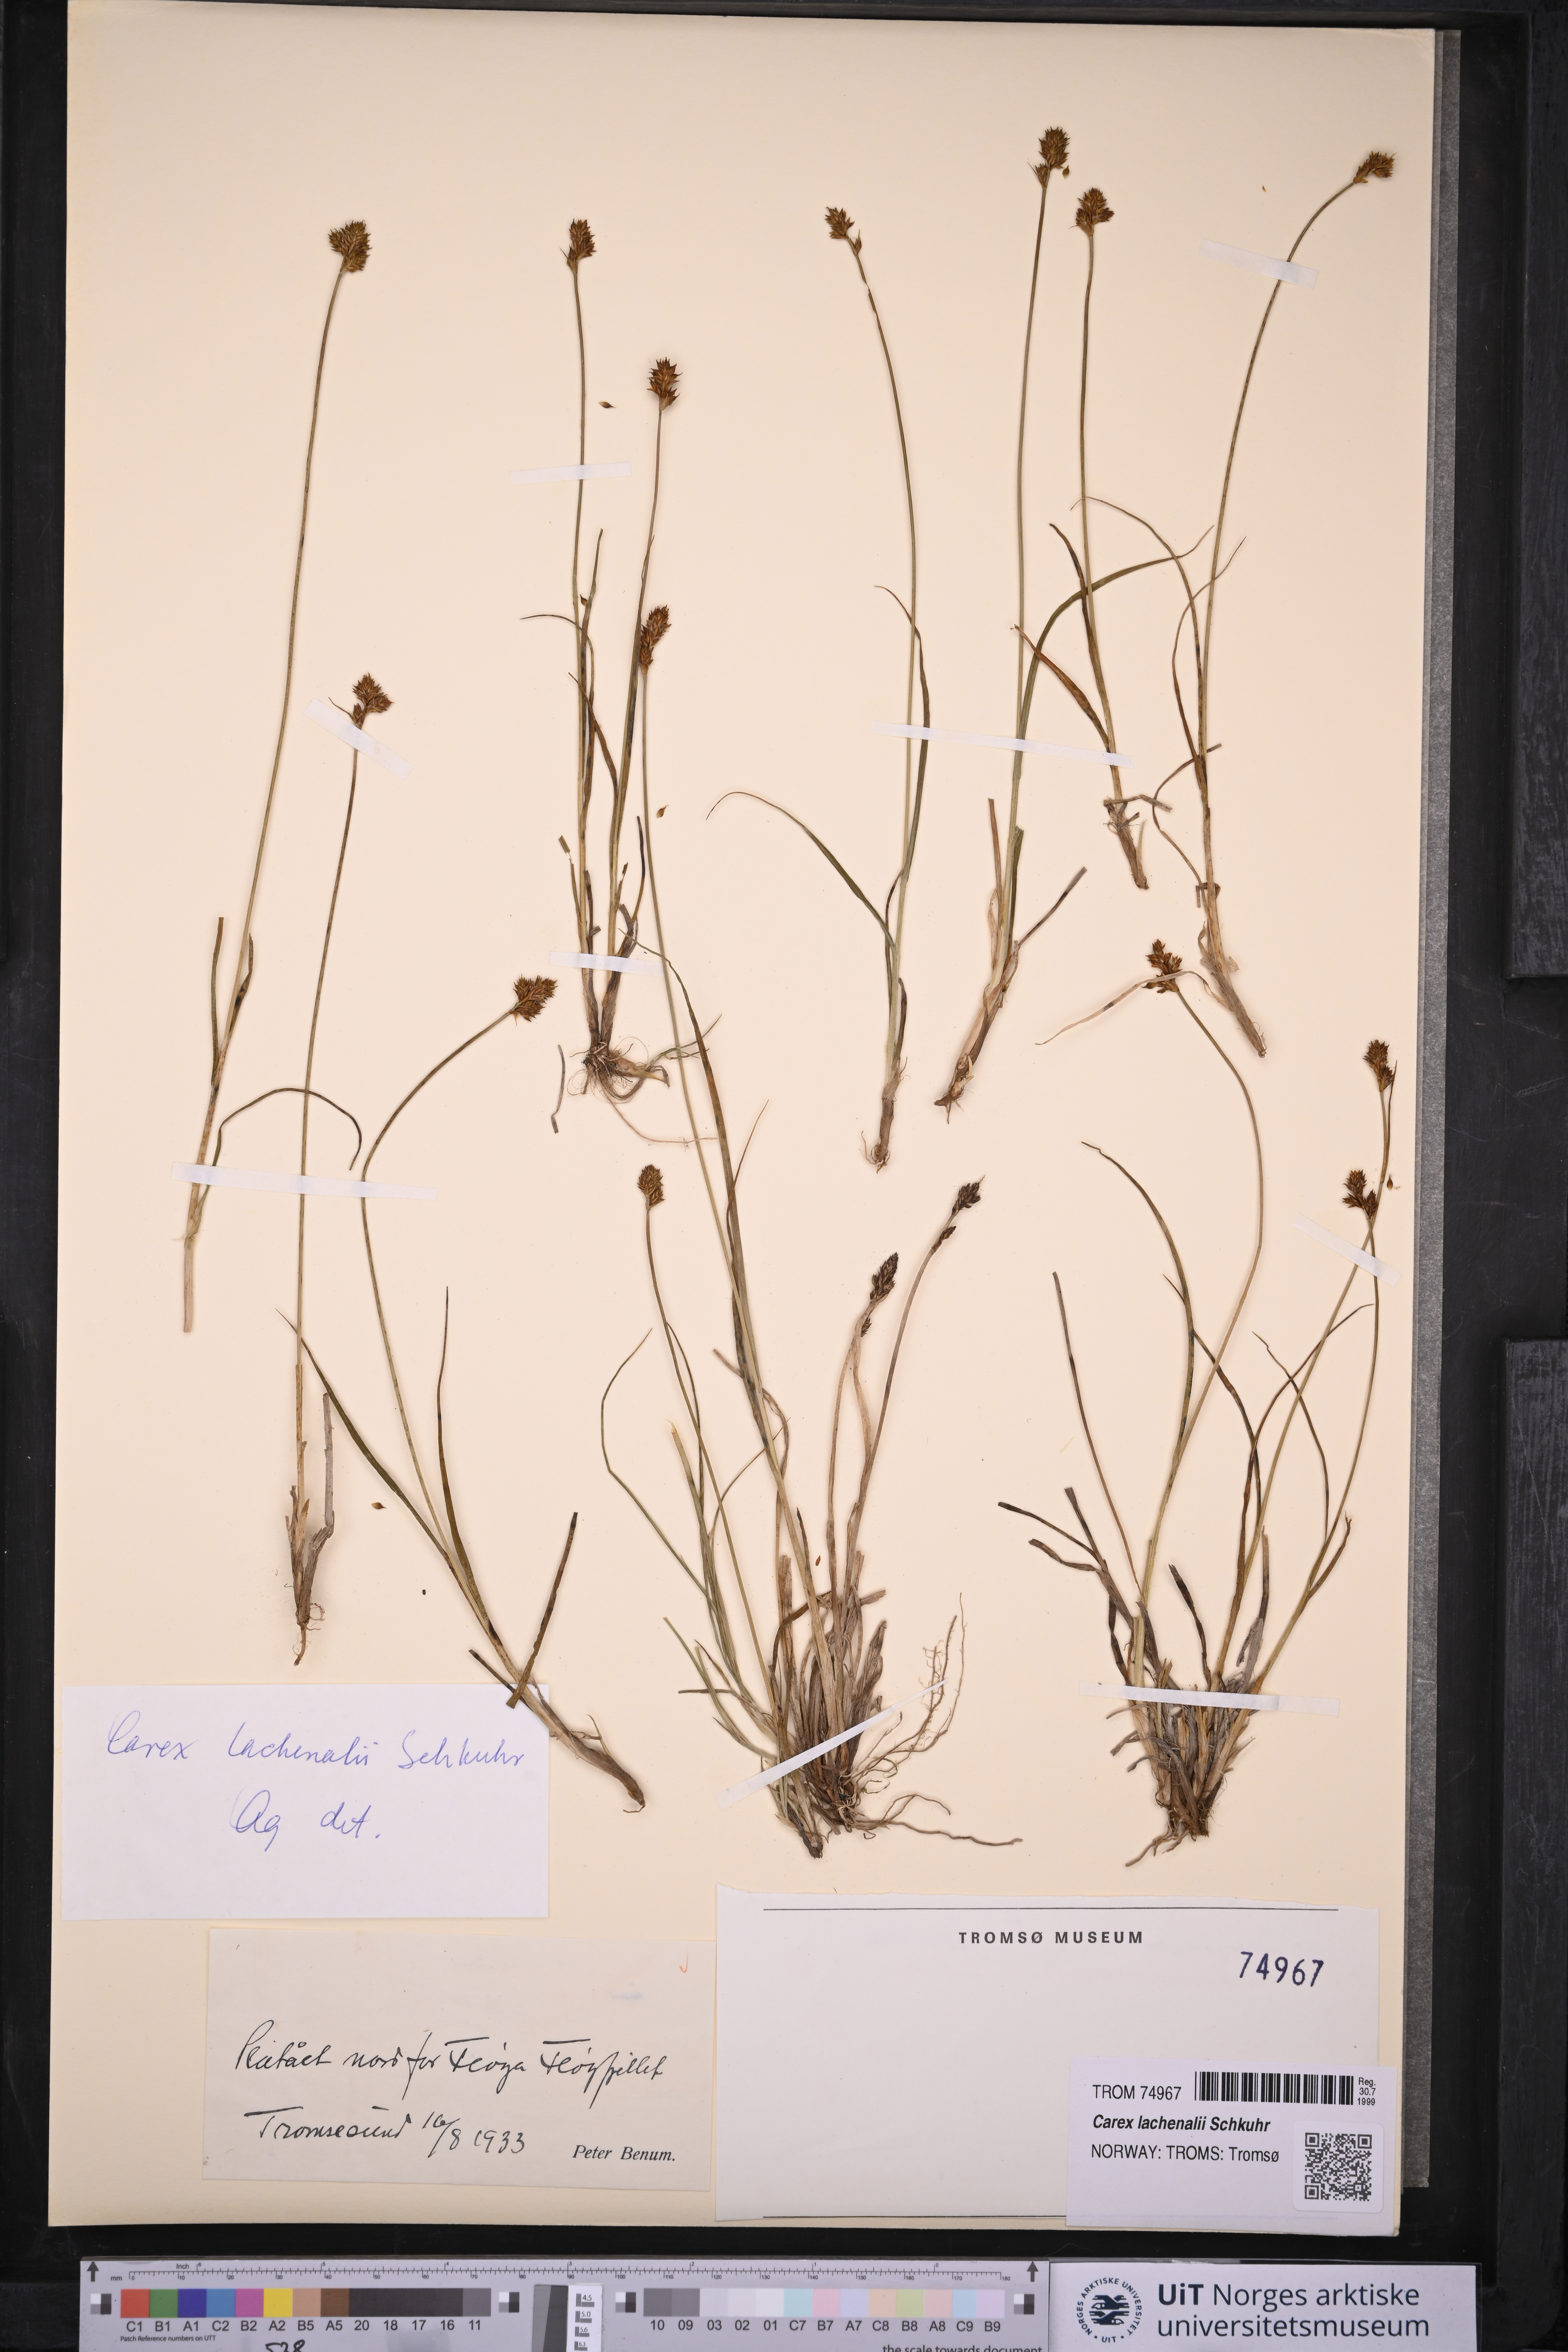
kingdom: Plantae
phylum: Tracheophyta
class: Liliopsida
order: Poales
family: Cyperaceae
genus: Carex
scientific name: Carex lachenalii
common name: Hare's-foot sedge
